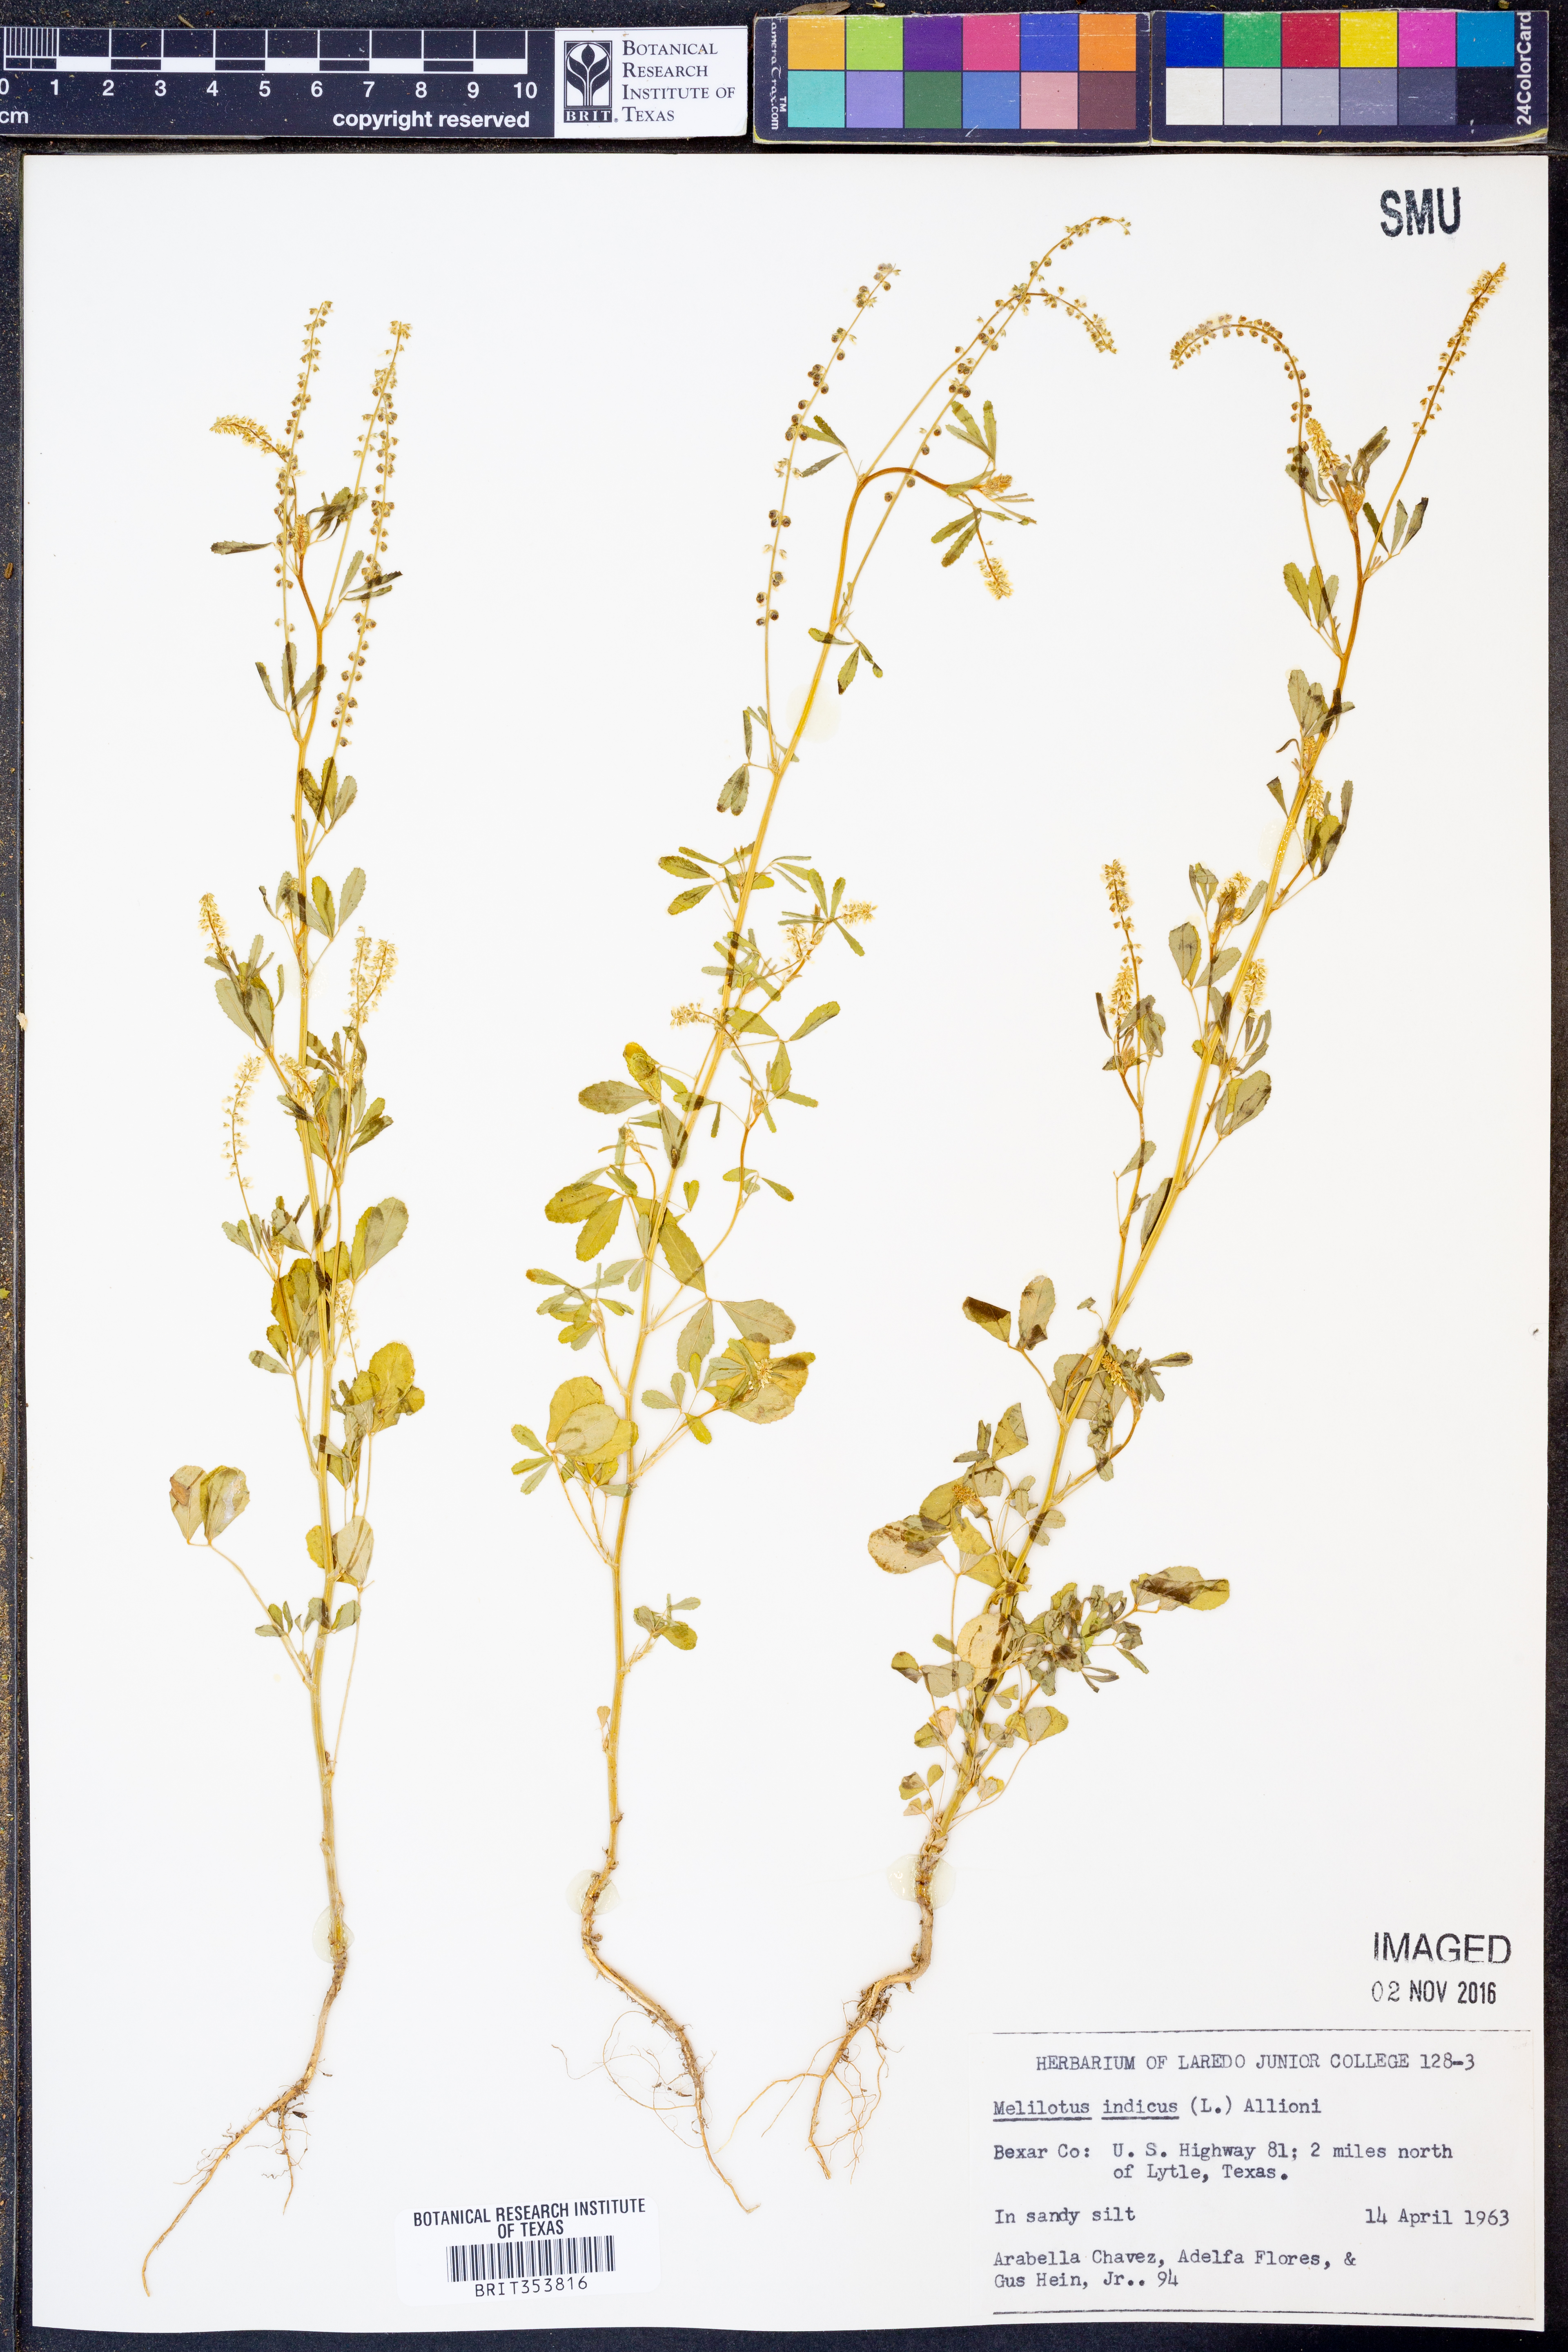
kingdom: Plantae
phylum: Tracheophyta
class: Magnoliopsida
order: Fabales
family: Fabaceae
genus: Melilotus
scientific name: Melilotus indicus
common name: Small melilot
